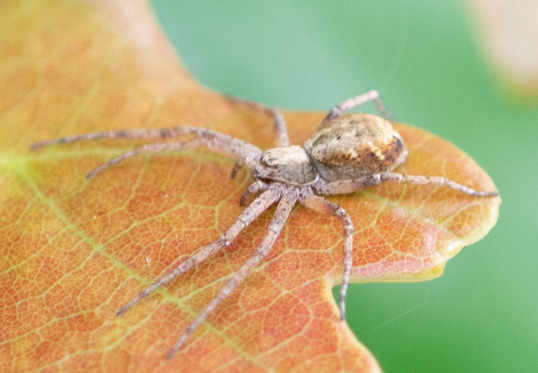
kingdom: Animalia
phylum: Arthropoda
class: Arachnida
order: Araneae
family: Philodromidae
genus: Philodromus
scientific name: Philodromus aureolus
